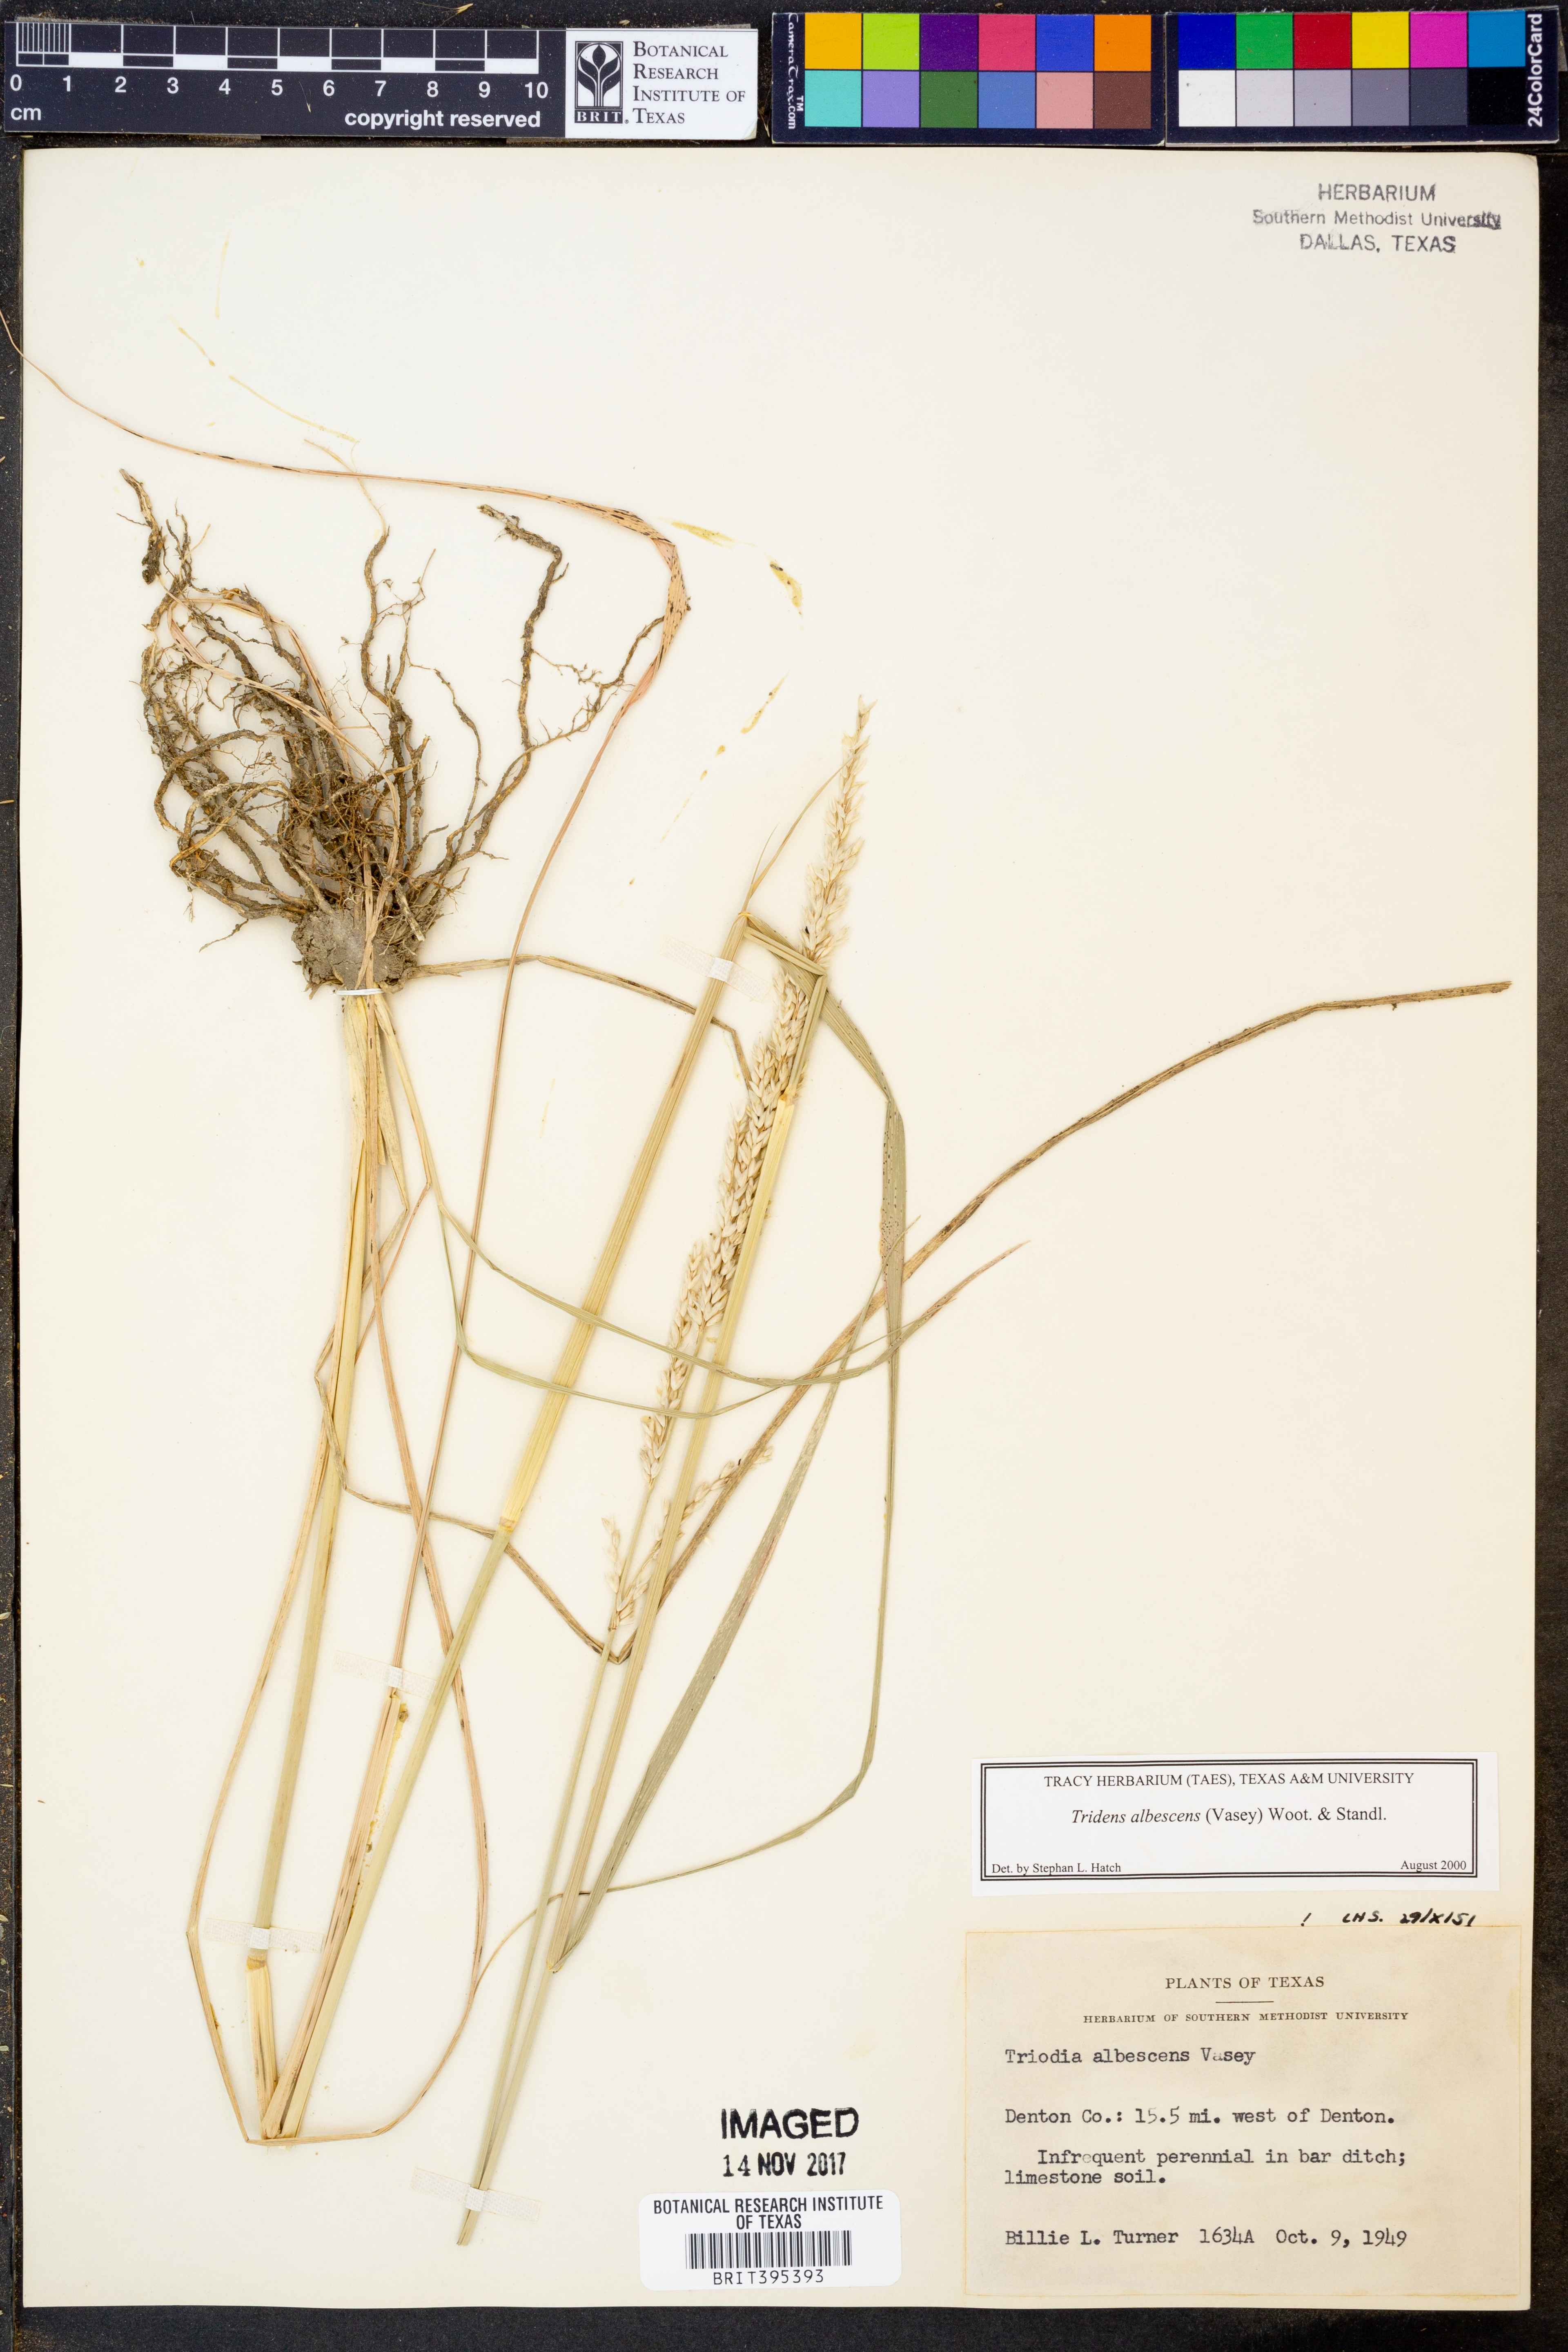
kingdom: Plantae
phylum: Tracheophyta
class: Liliopsida
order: Poales
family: Poaceae
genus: Tridens
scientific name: Tridens albescens
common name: White tridens
